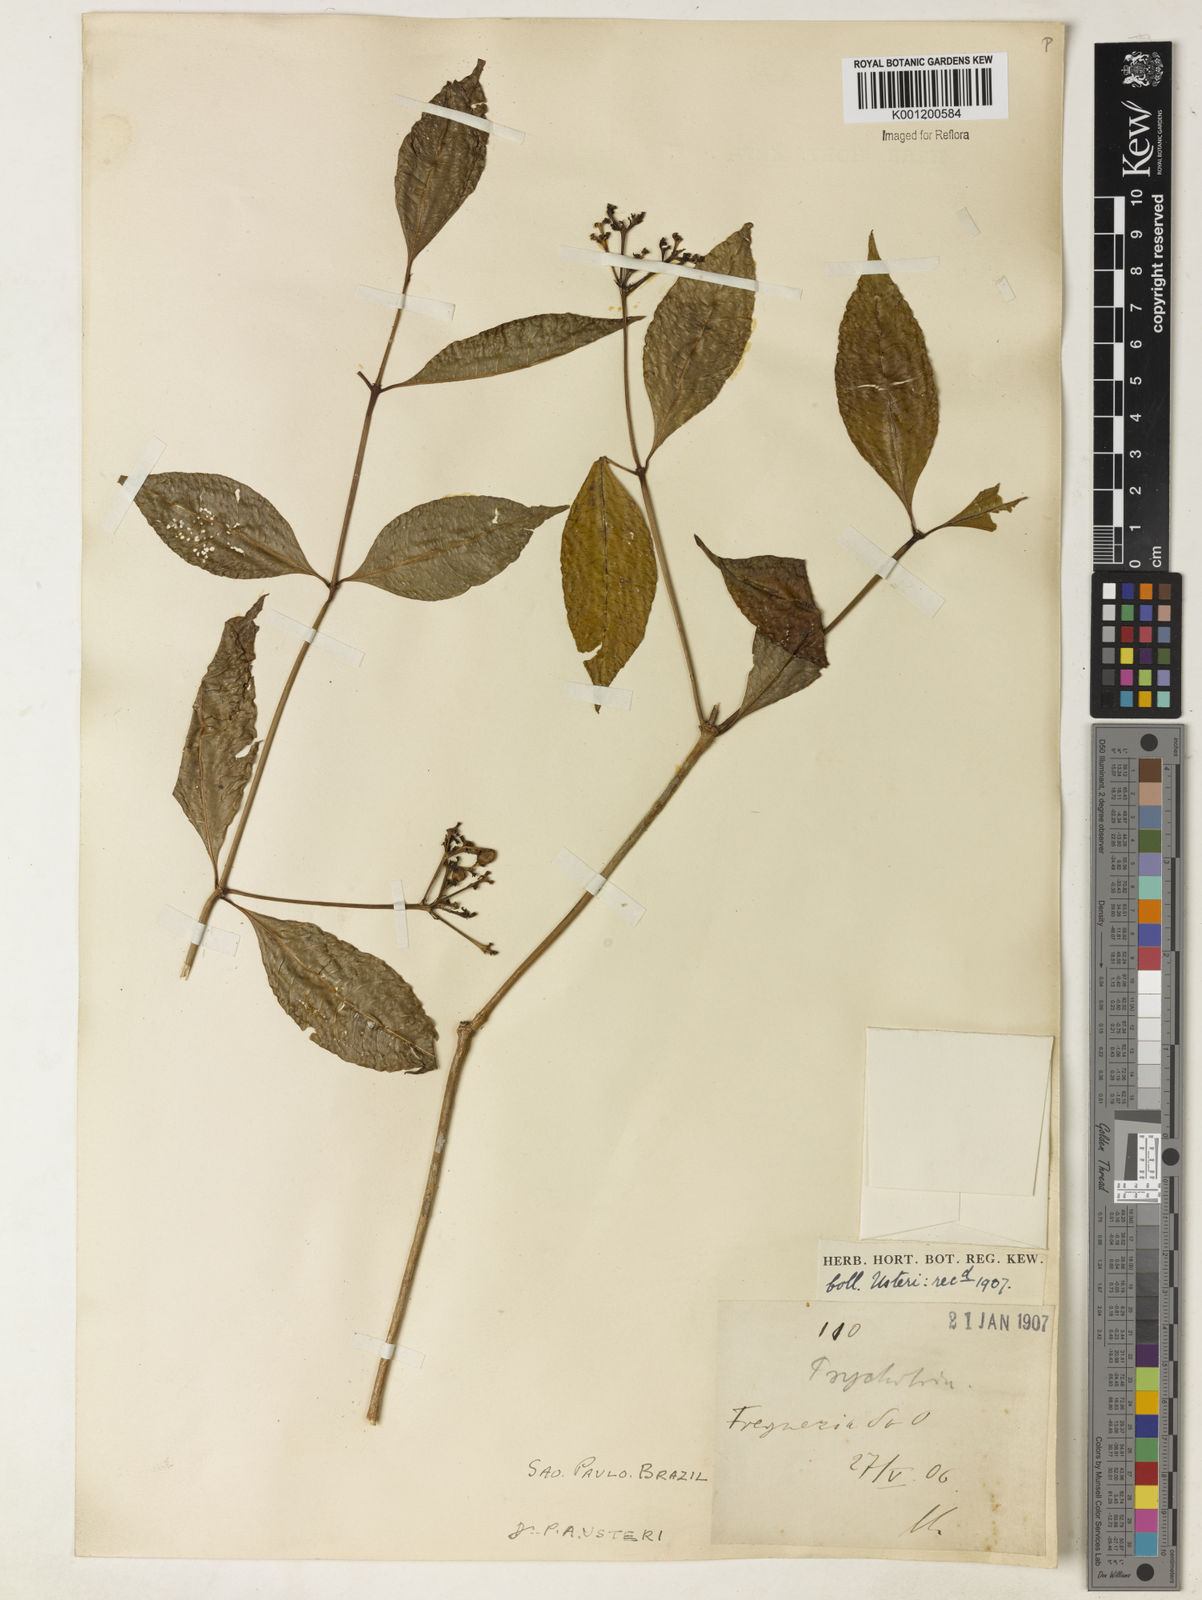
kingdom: Plantae
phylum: Tracheophyta
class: Magnoliopsida
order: Gentianales
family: Rubiaceae
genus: Psychotria
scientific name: Psychotria
